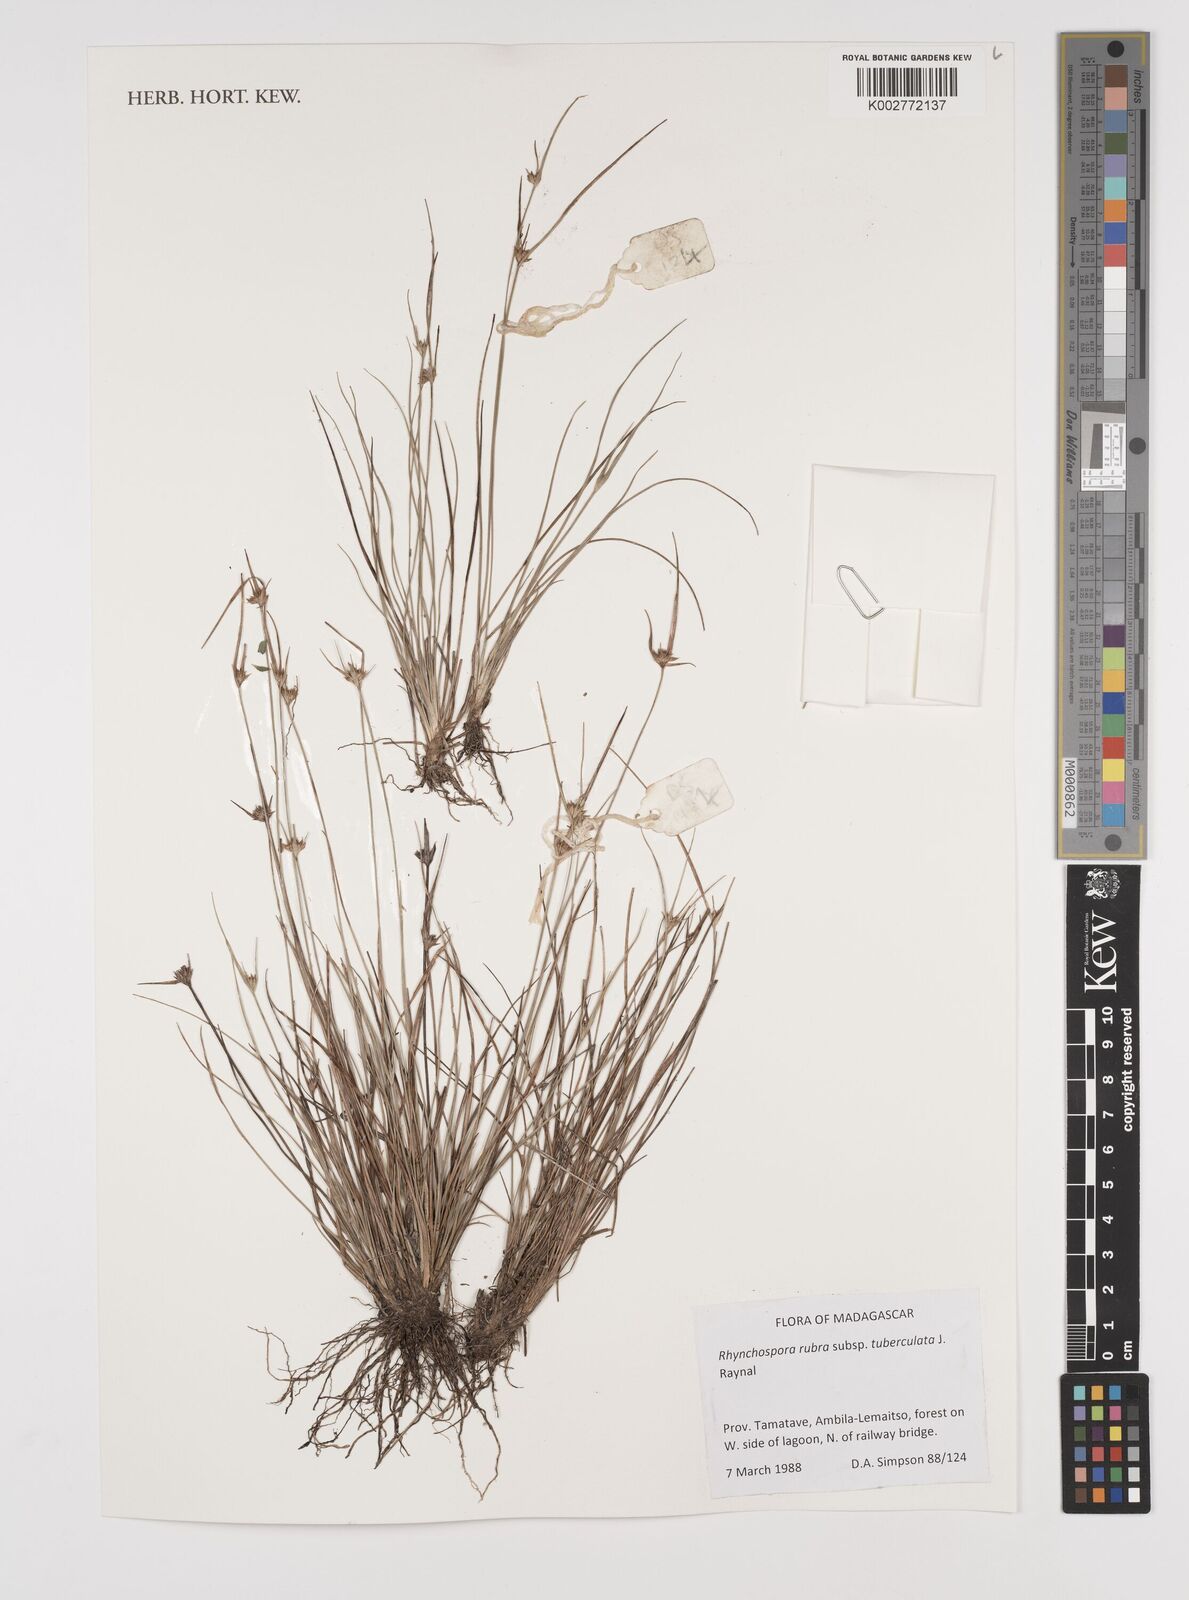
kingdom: Plantae
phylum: Tracheophyta
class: Liliopsida
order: Poales
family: Cyperaceae
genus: Rhynchospora
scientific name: Rhynchospora rubra
